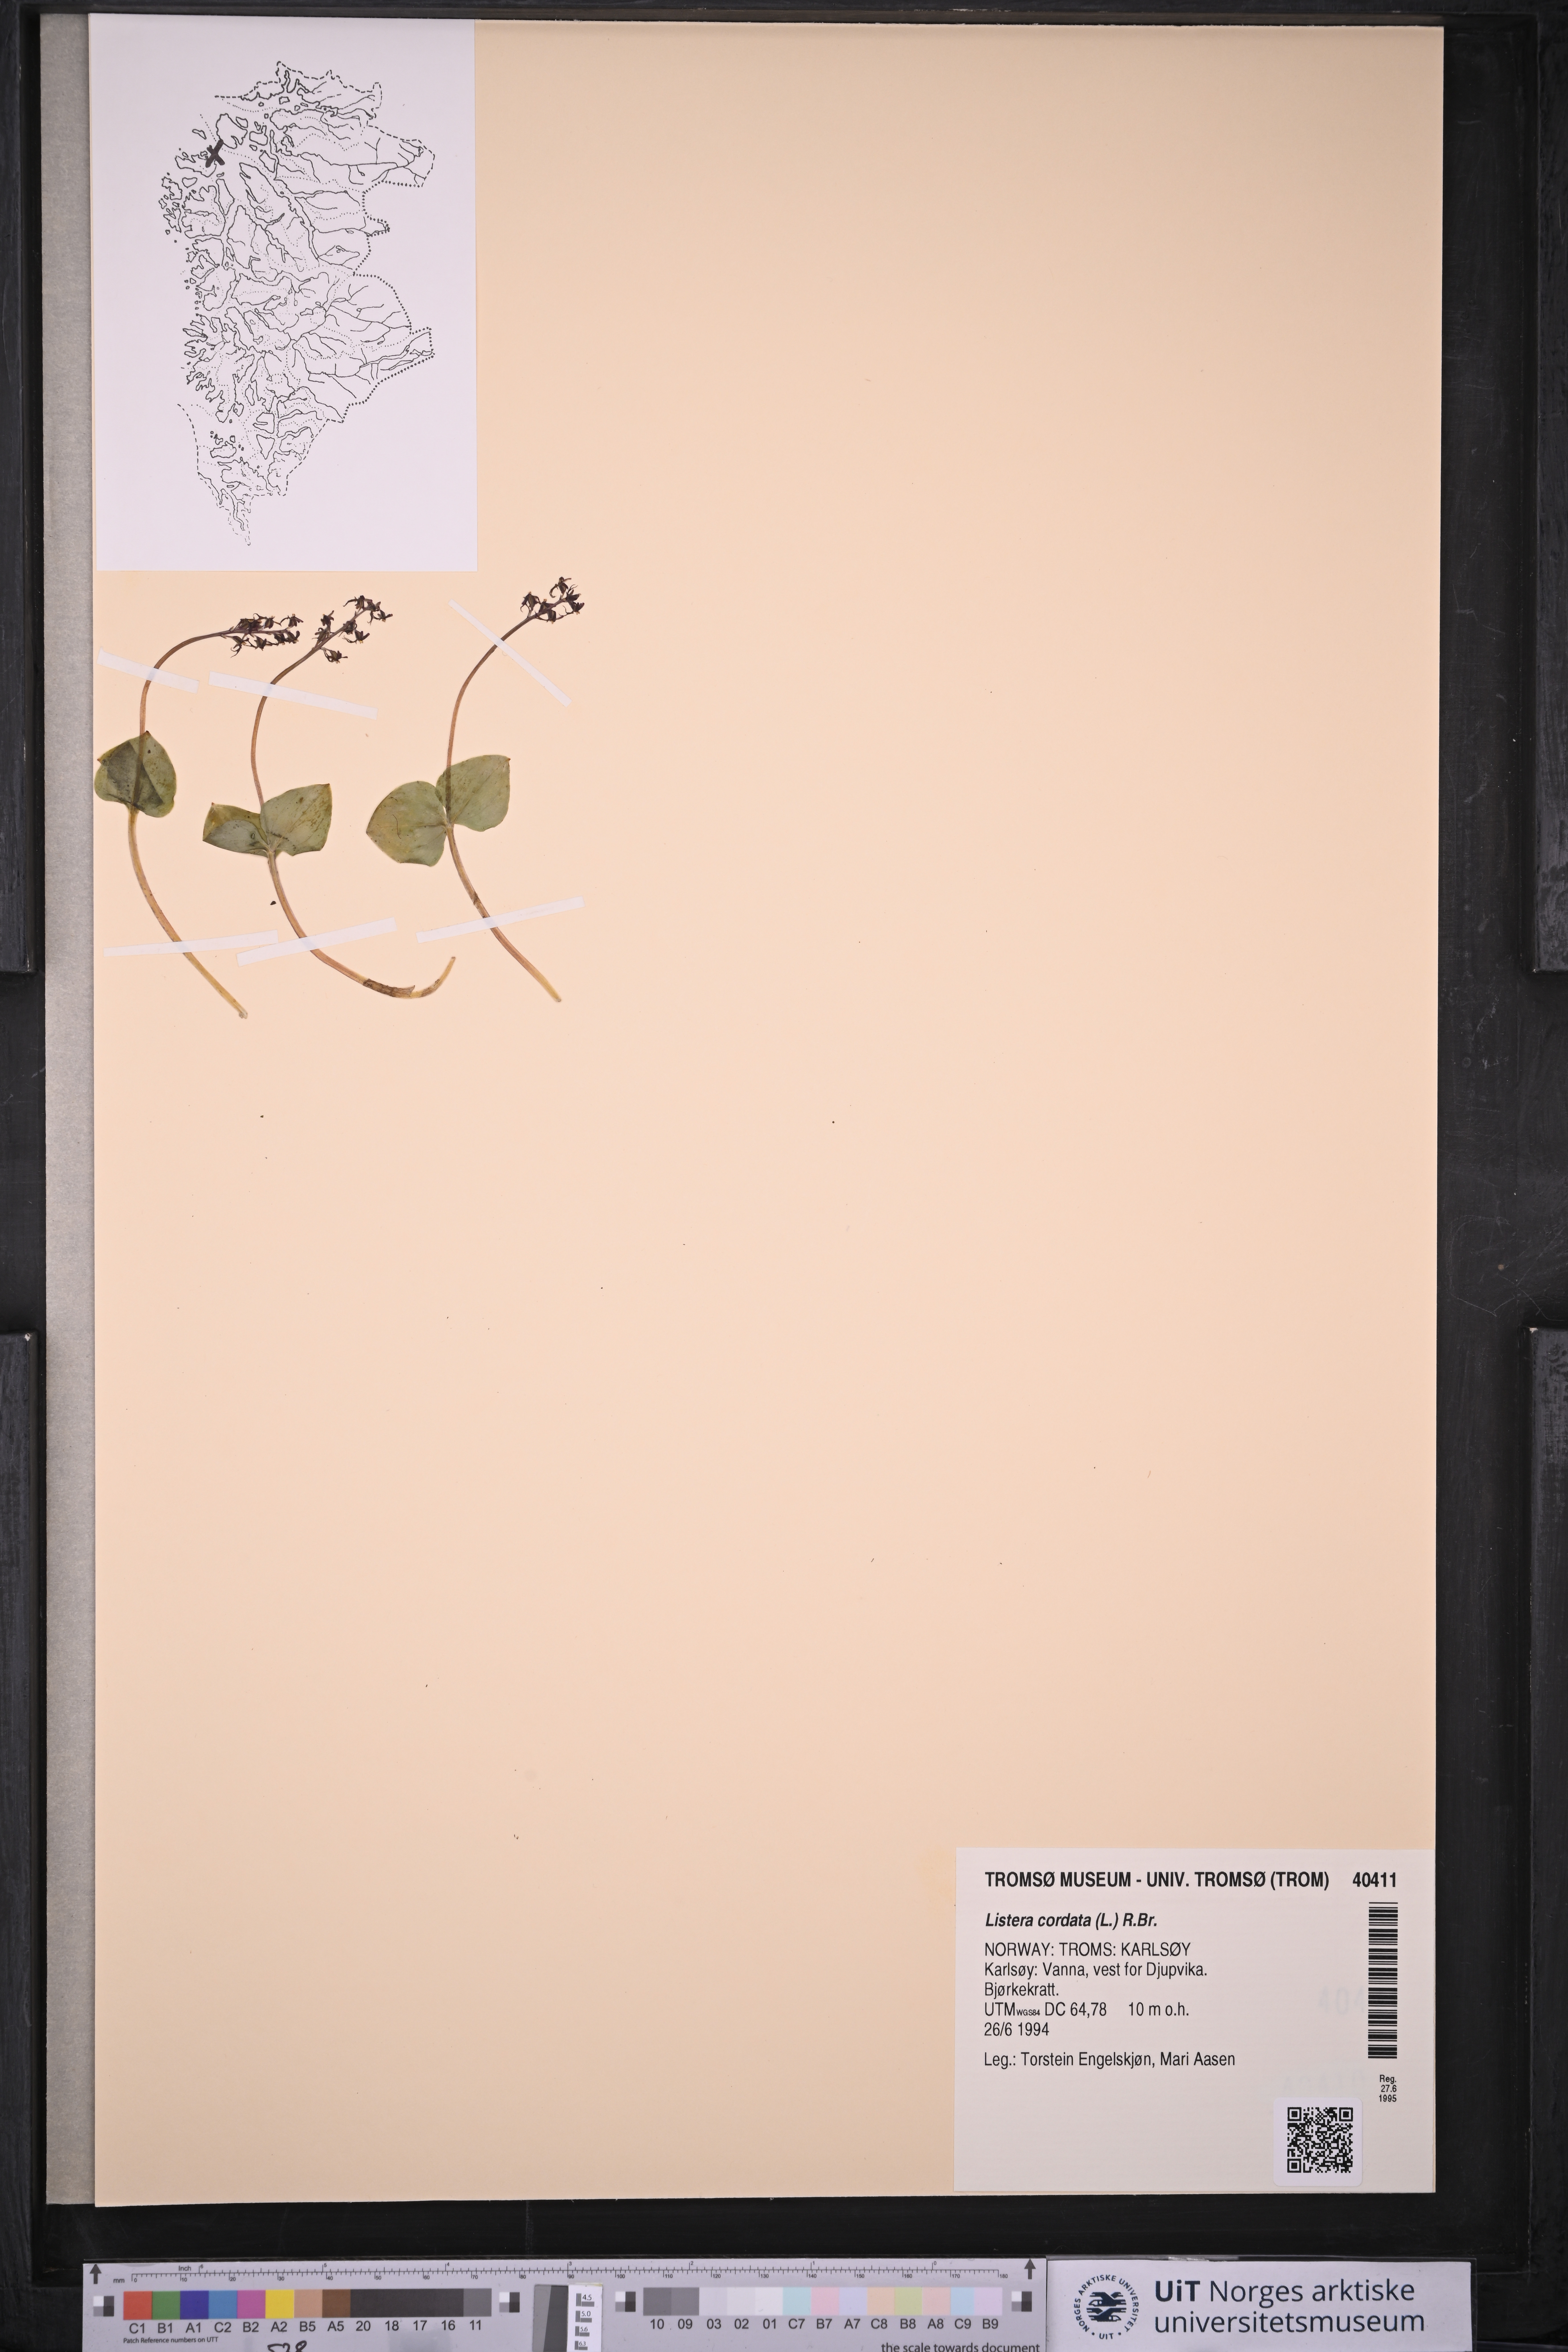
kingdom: Plantae
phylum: Tracheophyta
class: Liliopsida
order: Asparagales
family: Orchidaceae
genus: Neottia
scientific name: Neottia cordata
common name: Lesser twayblade
